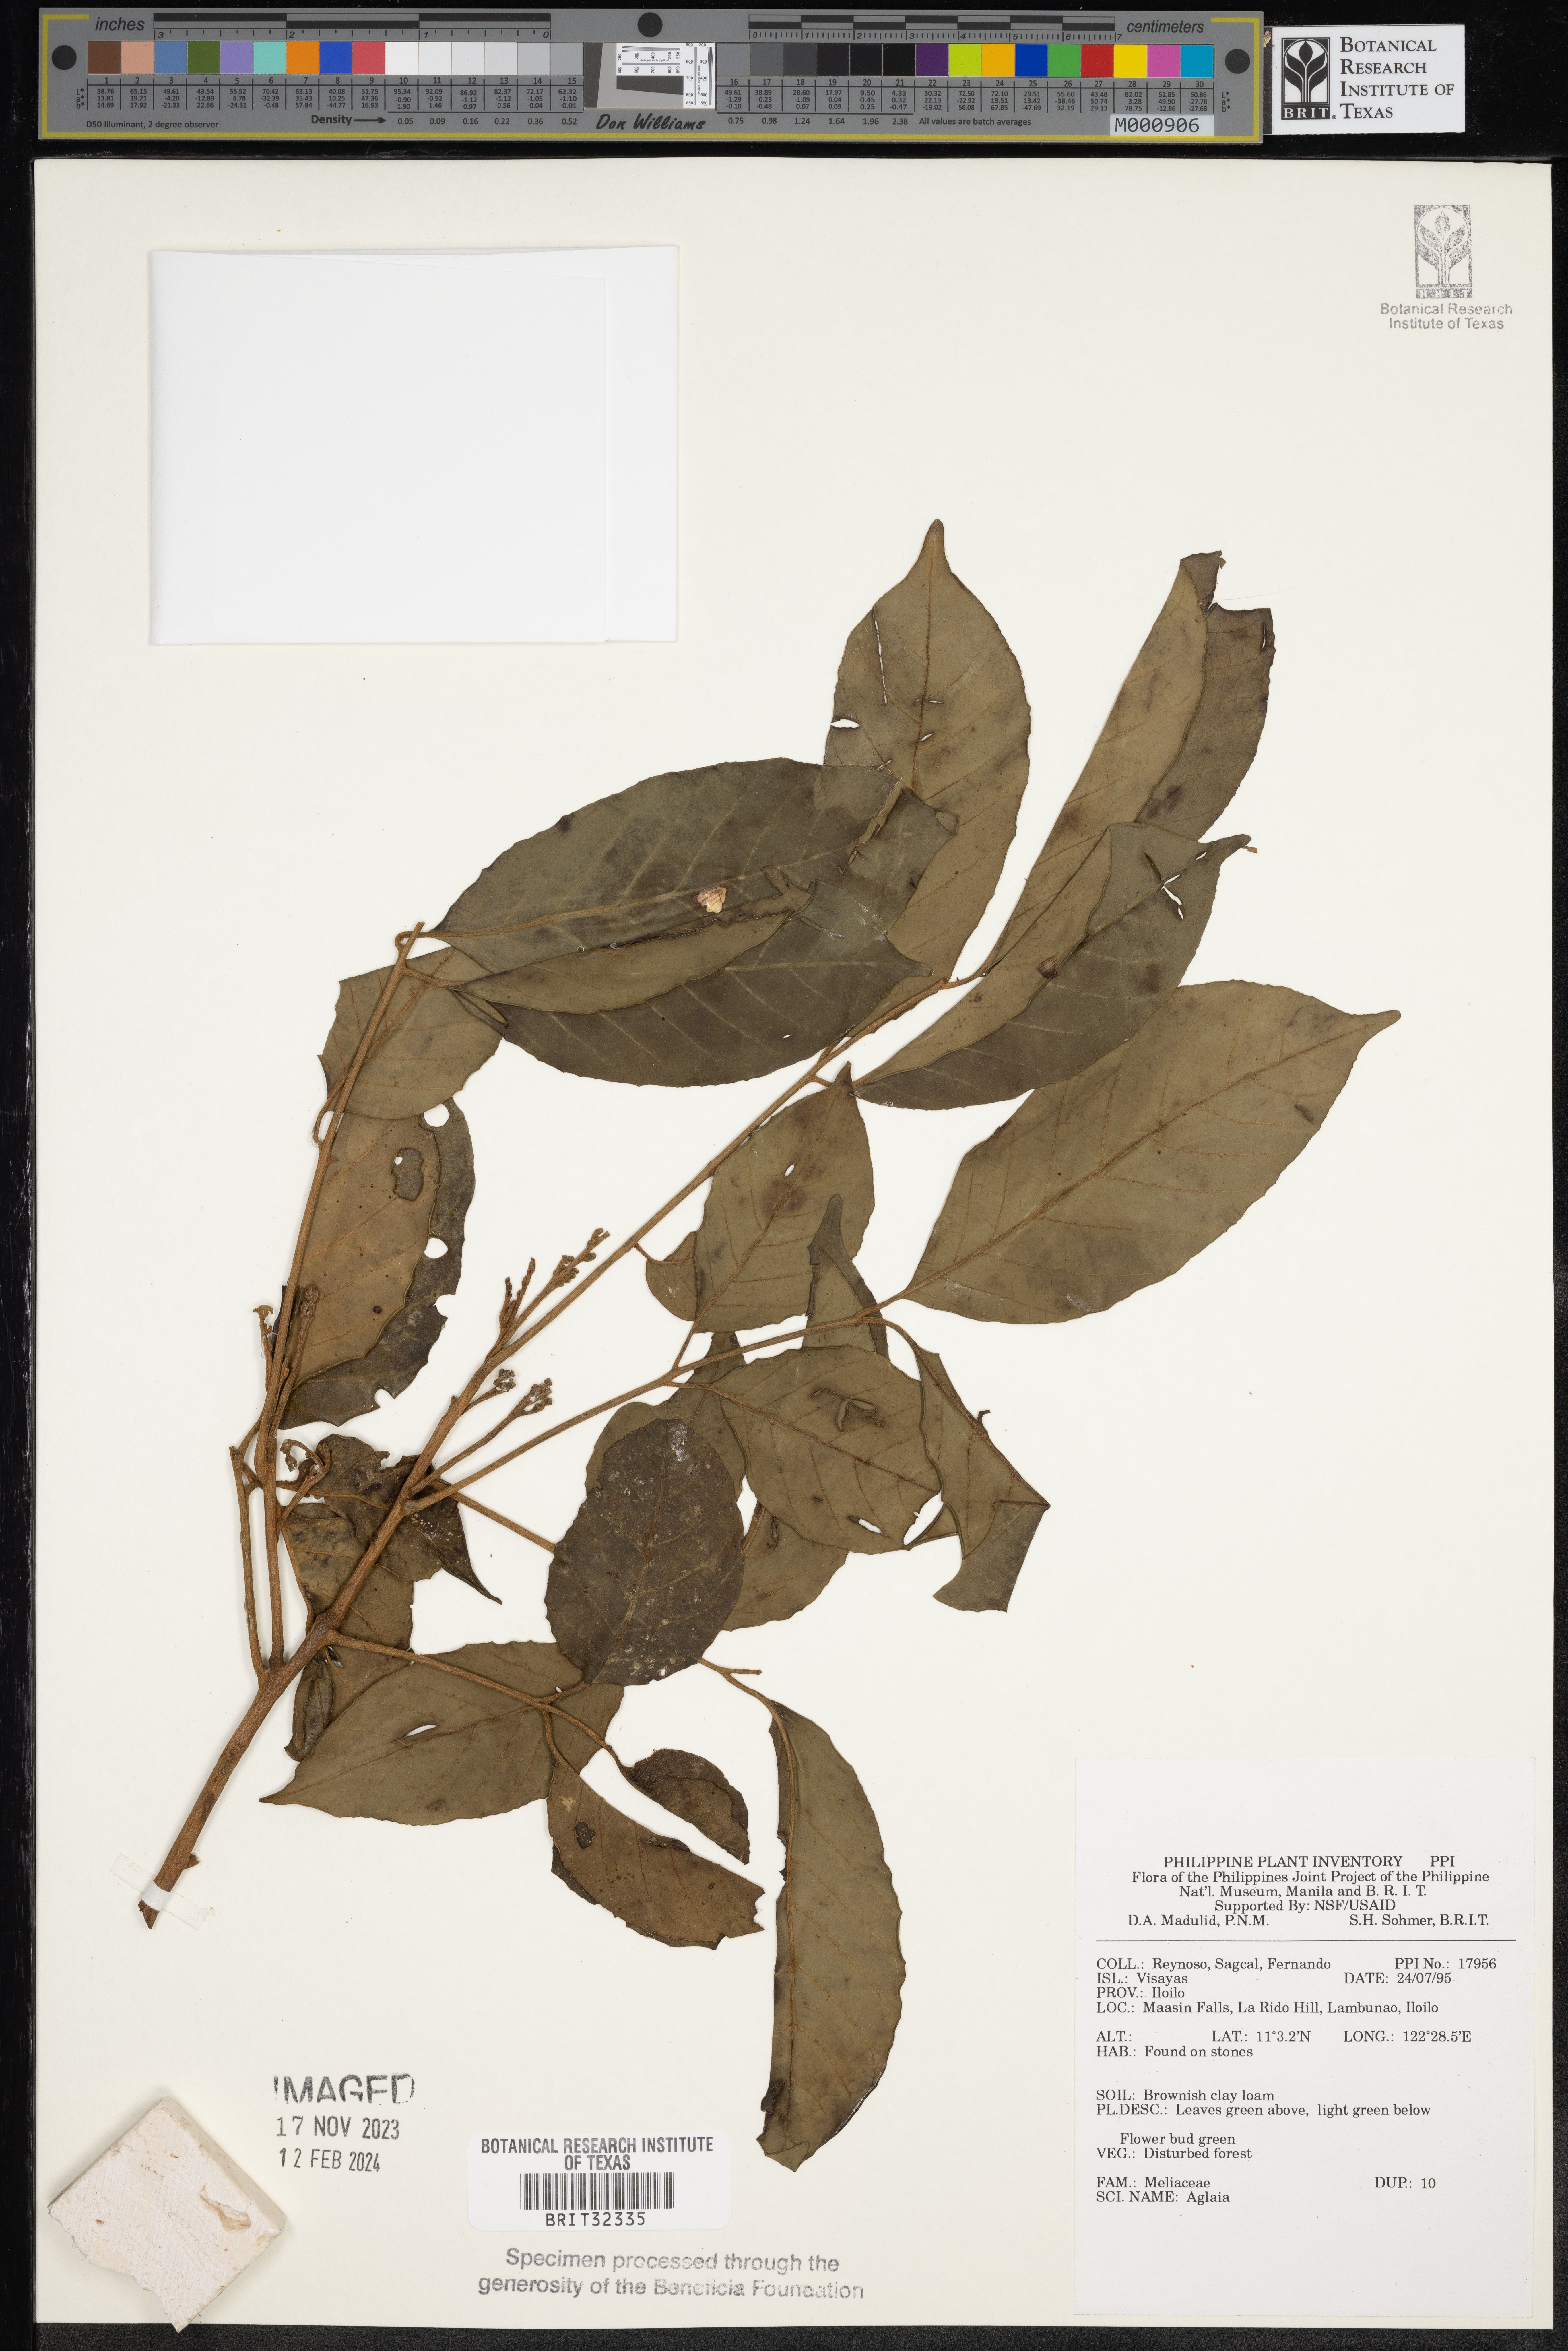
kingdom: Plantae
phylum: Tracheophyta
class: Magnoliopsida
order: Sapindales
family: Meliaceae
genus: Aglaia
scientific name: Aglaia
